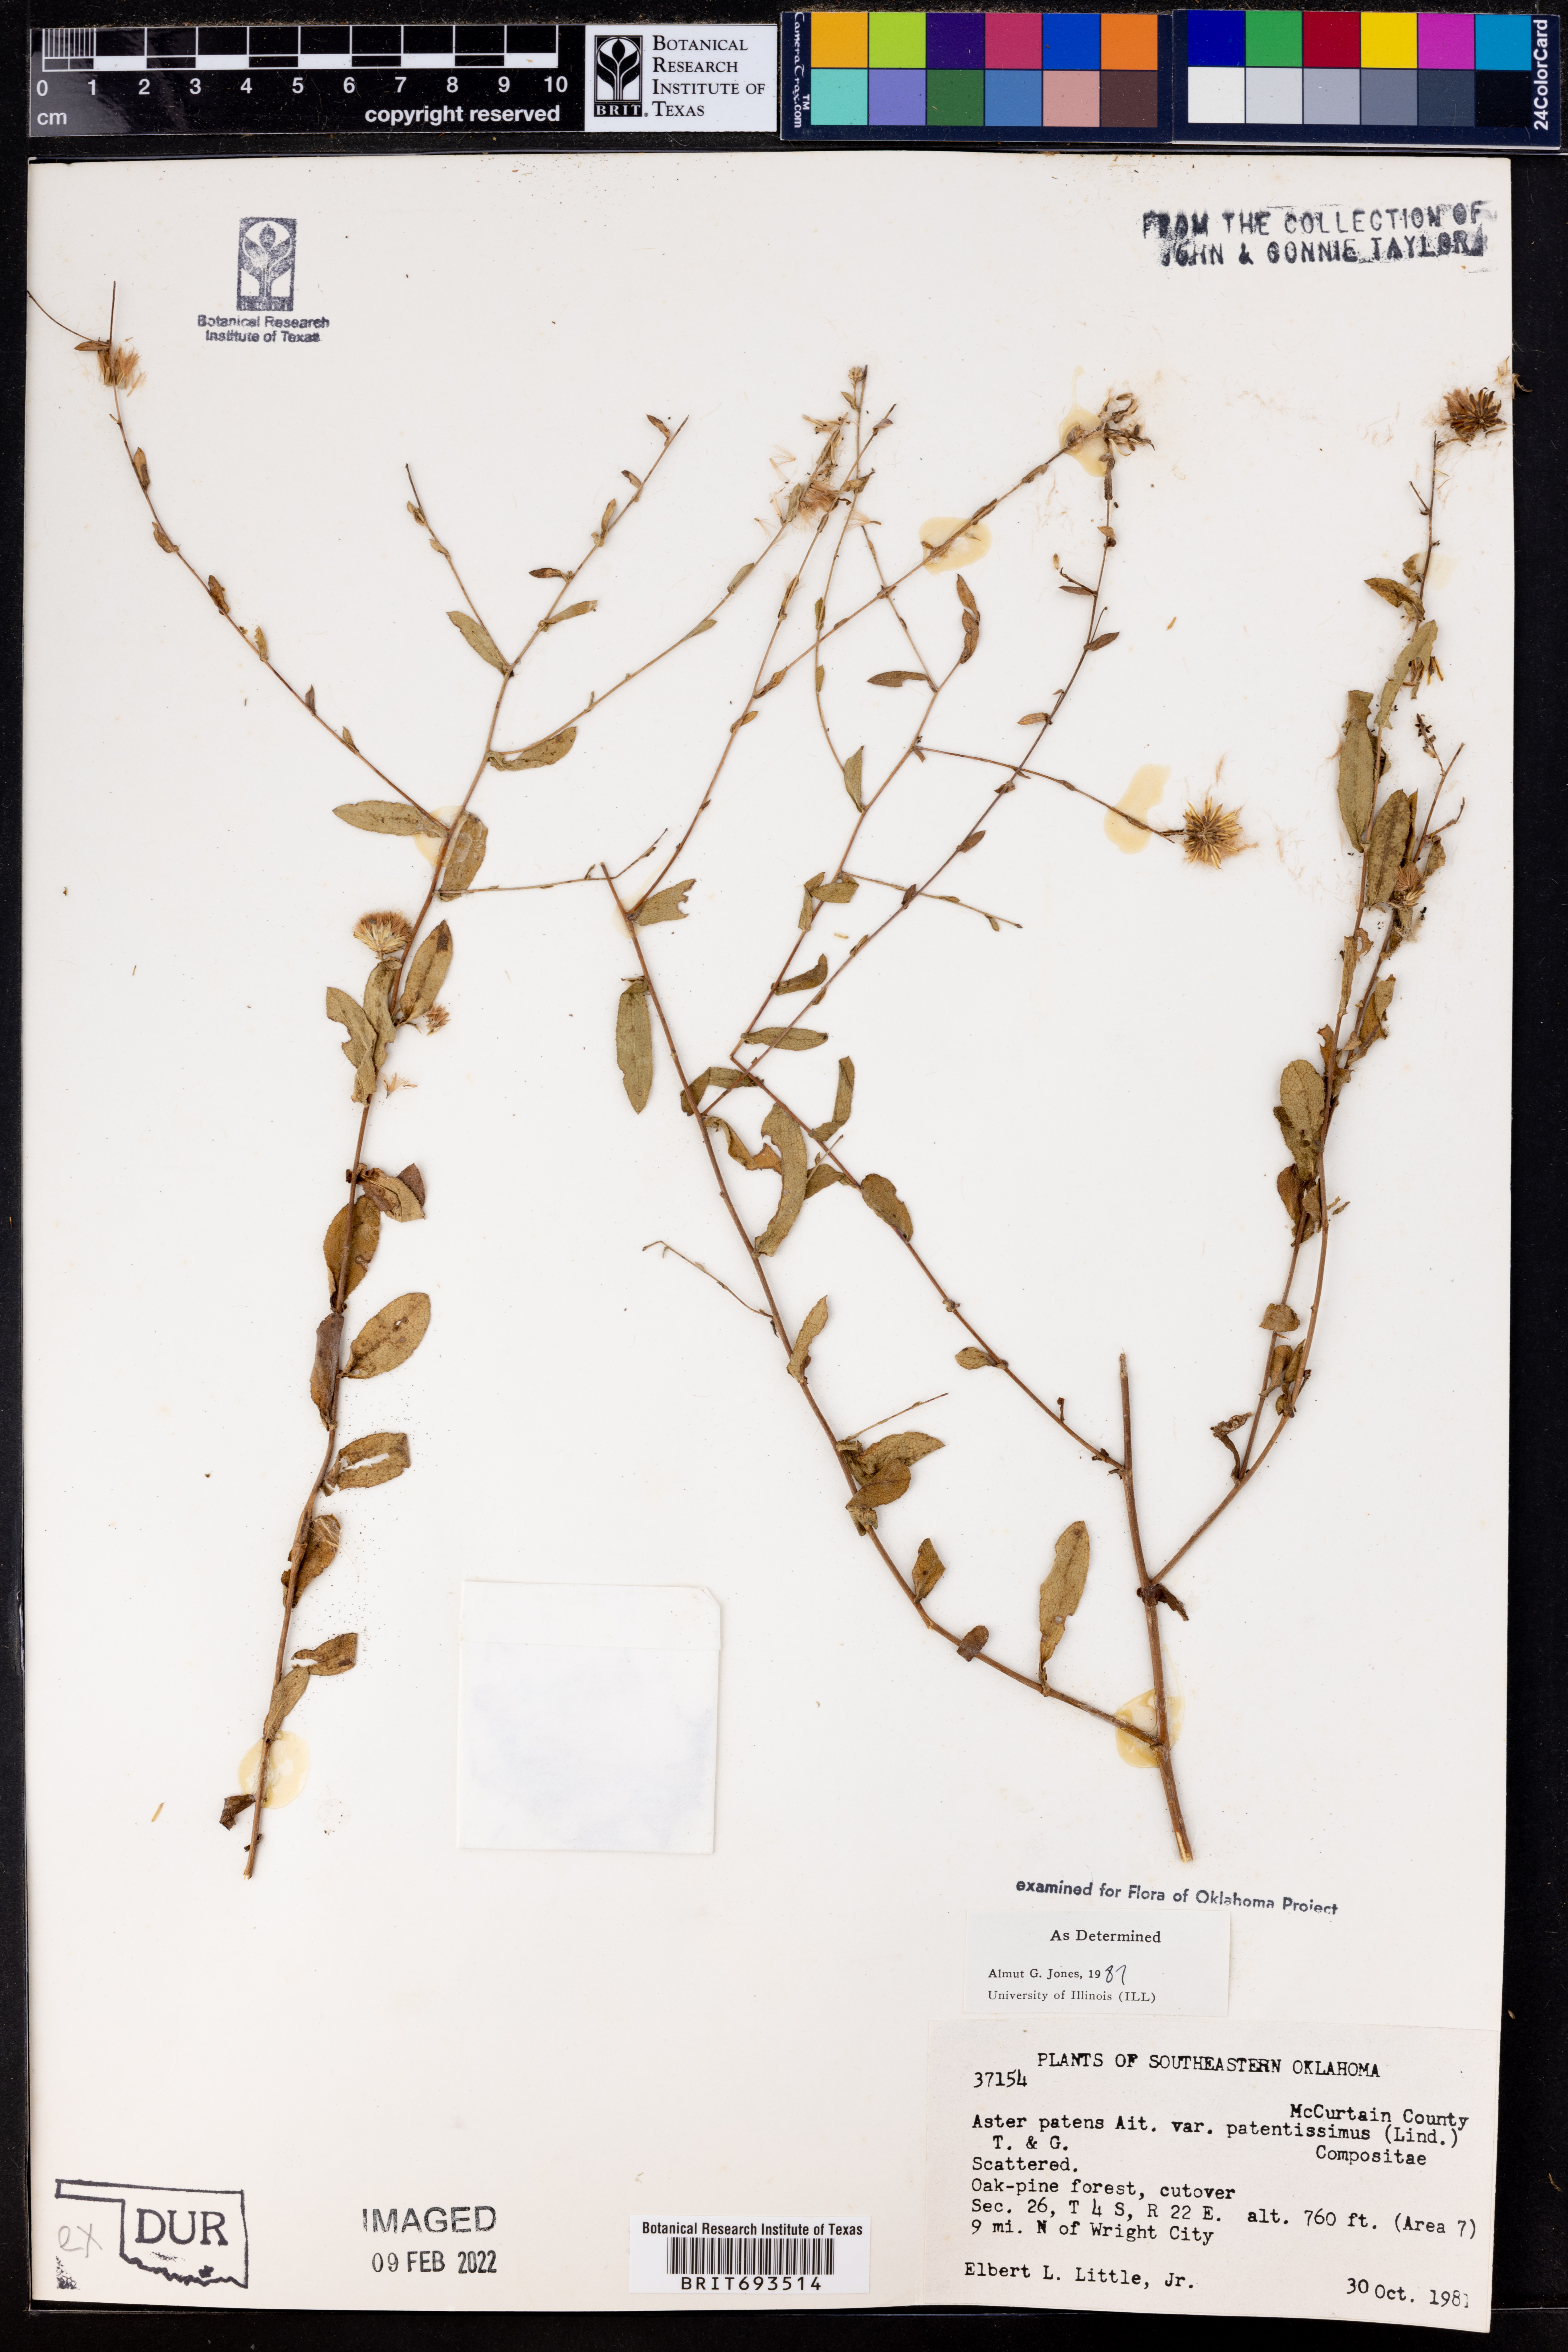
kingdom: Plantae
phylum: Tracheophyta
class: Magnoliopsida
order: Asterales
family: Asteraceae
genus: Symphyotrichum
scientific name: Symphyotrichum patens
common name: Late purple aster
